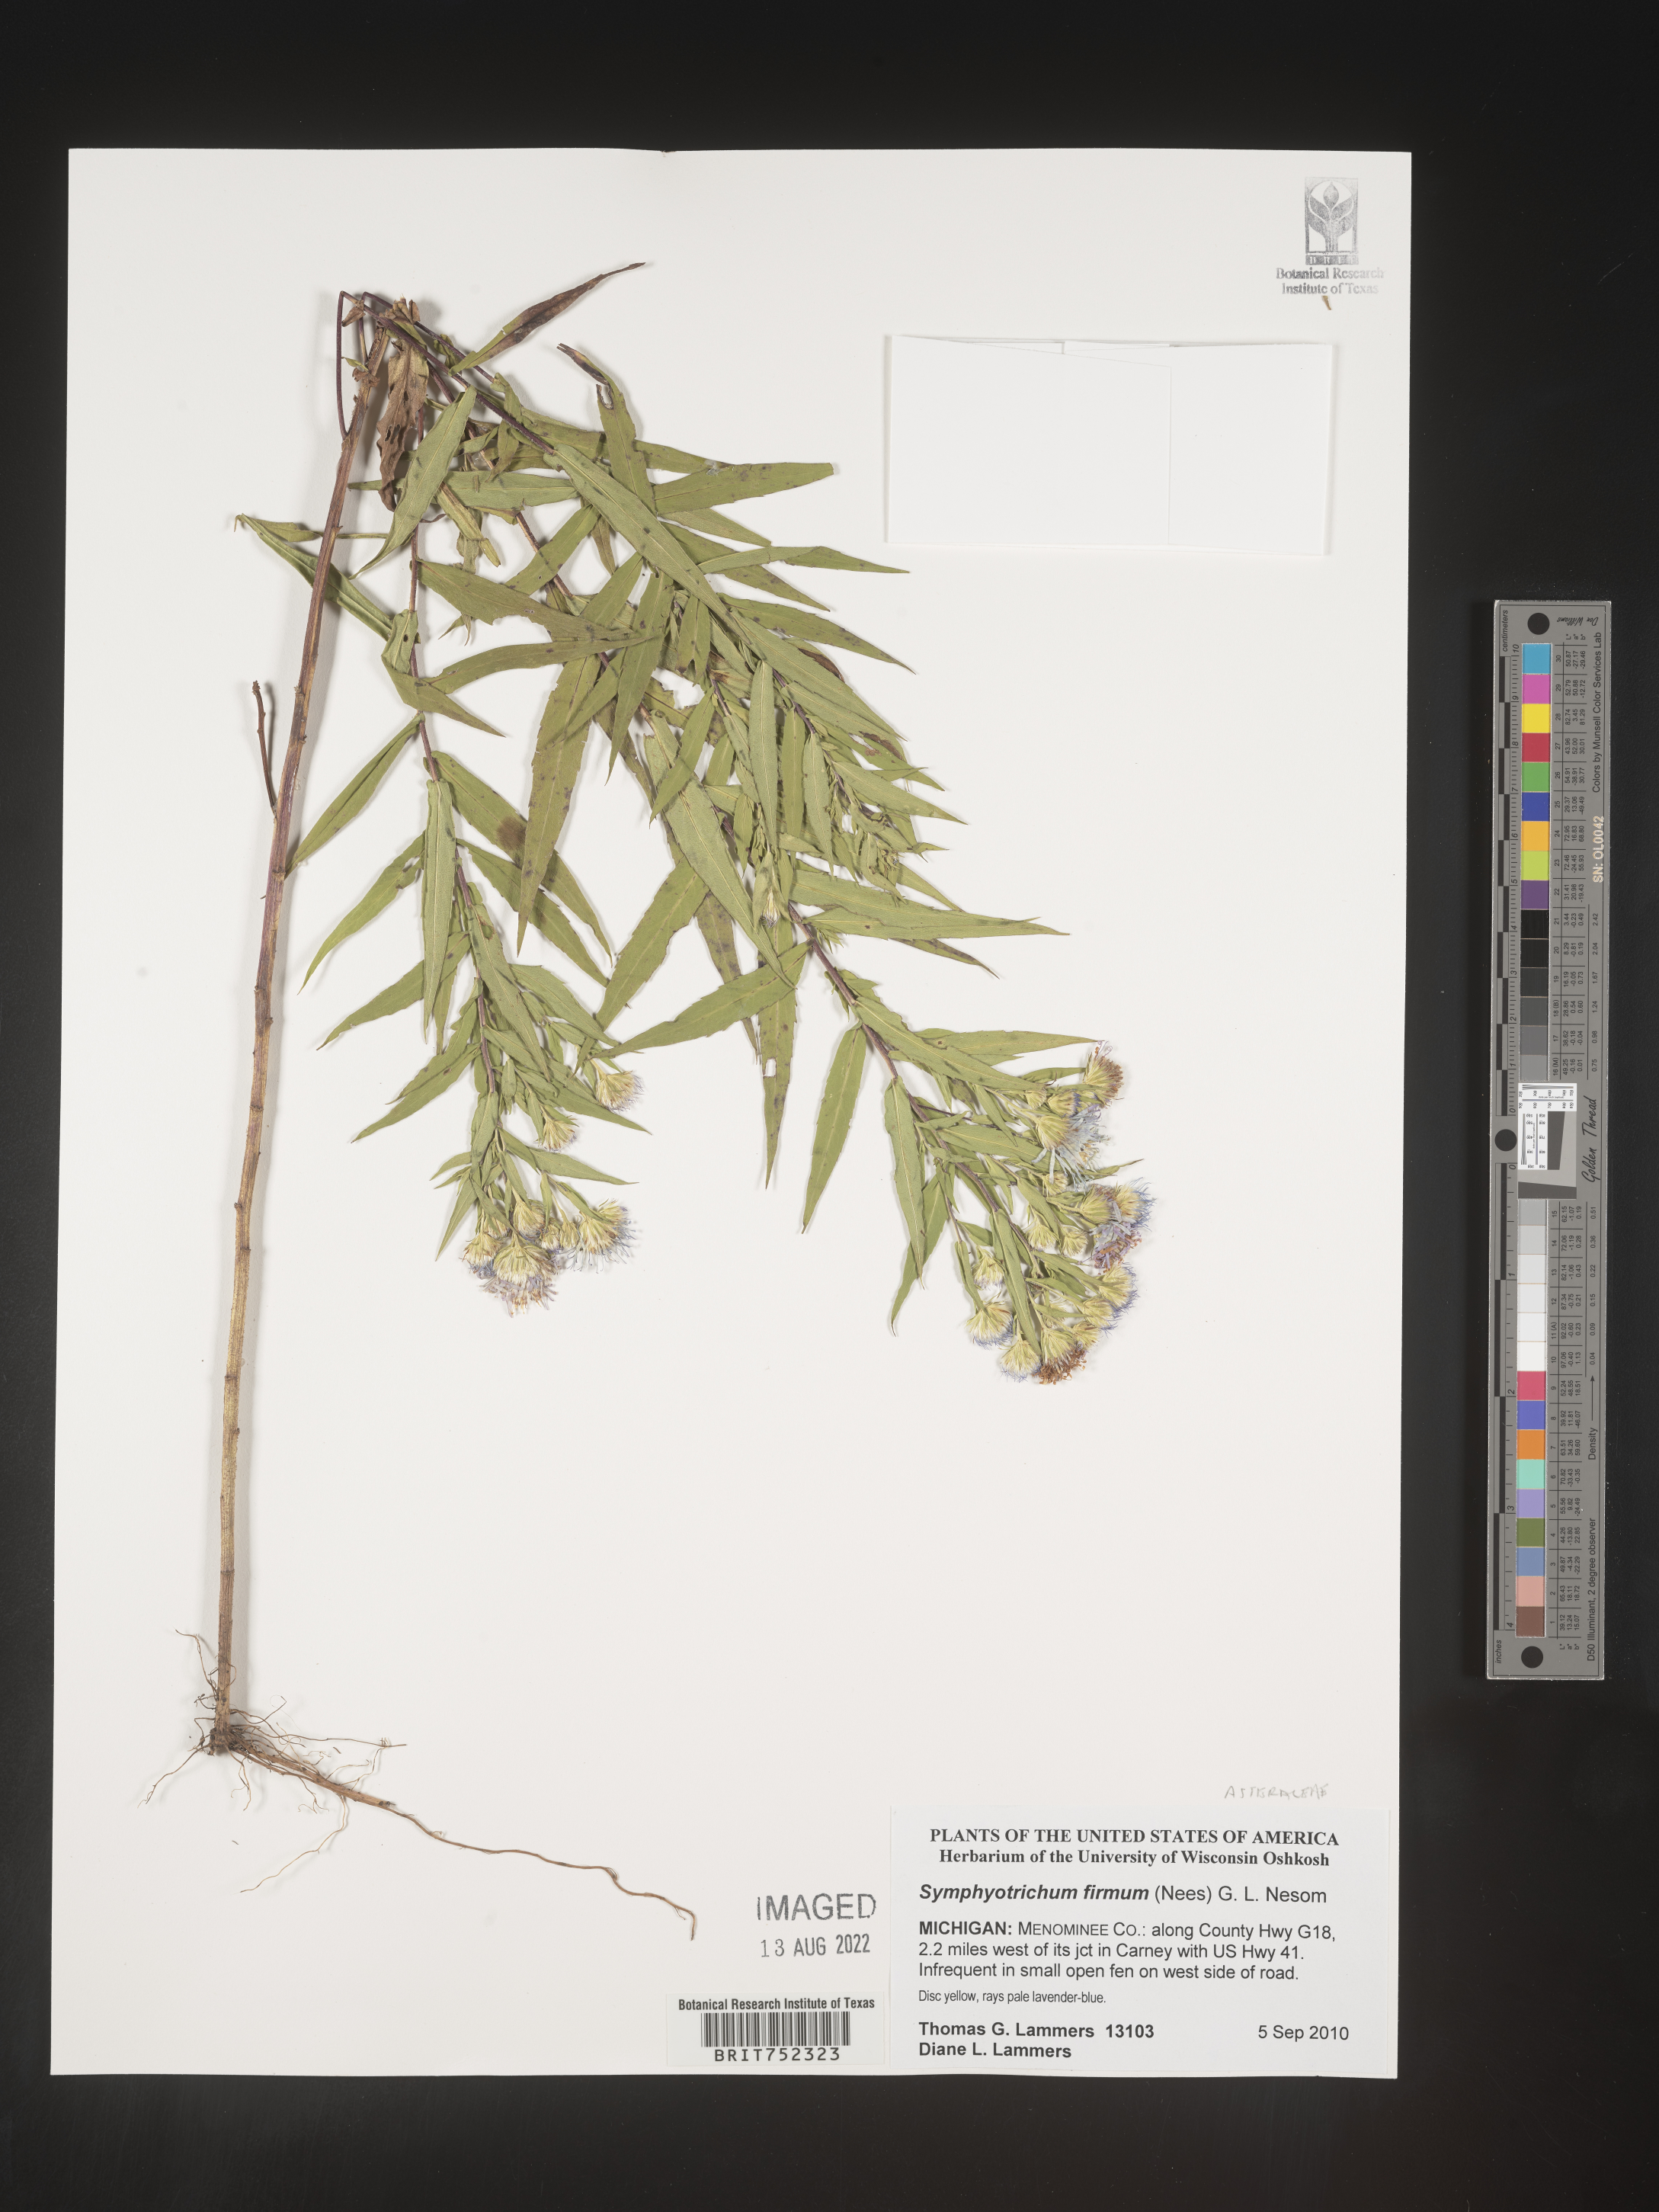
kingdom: Plantae
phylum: Tracheophyta
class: Magnoliopsida
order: Asterales
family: Asteraceae
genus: Symphyotrichum
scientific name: Symphyotrichum firmum
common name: Shining aster
